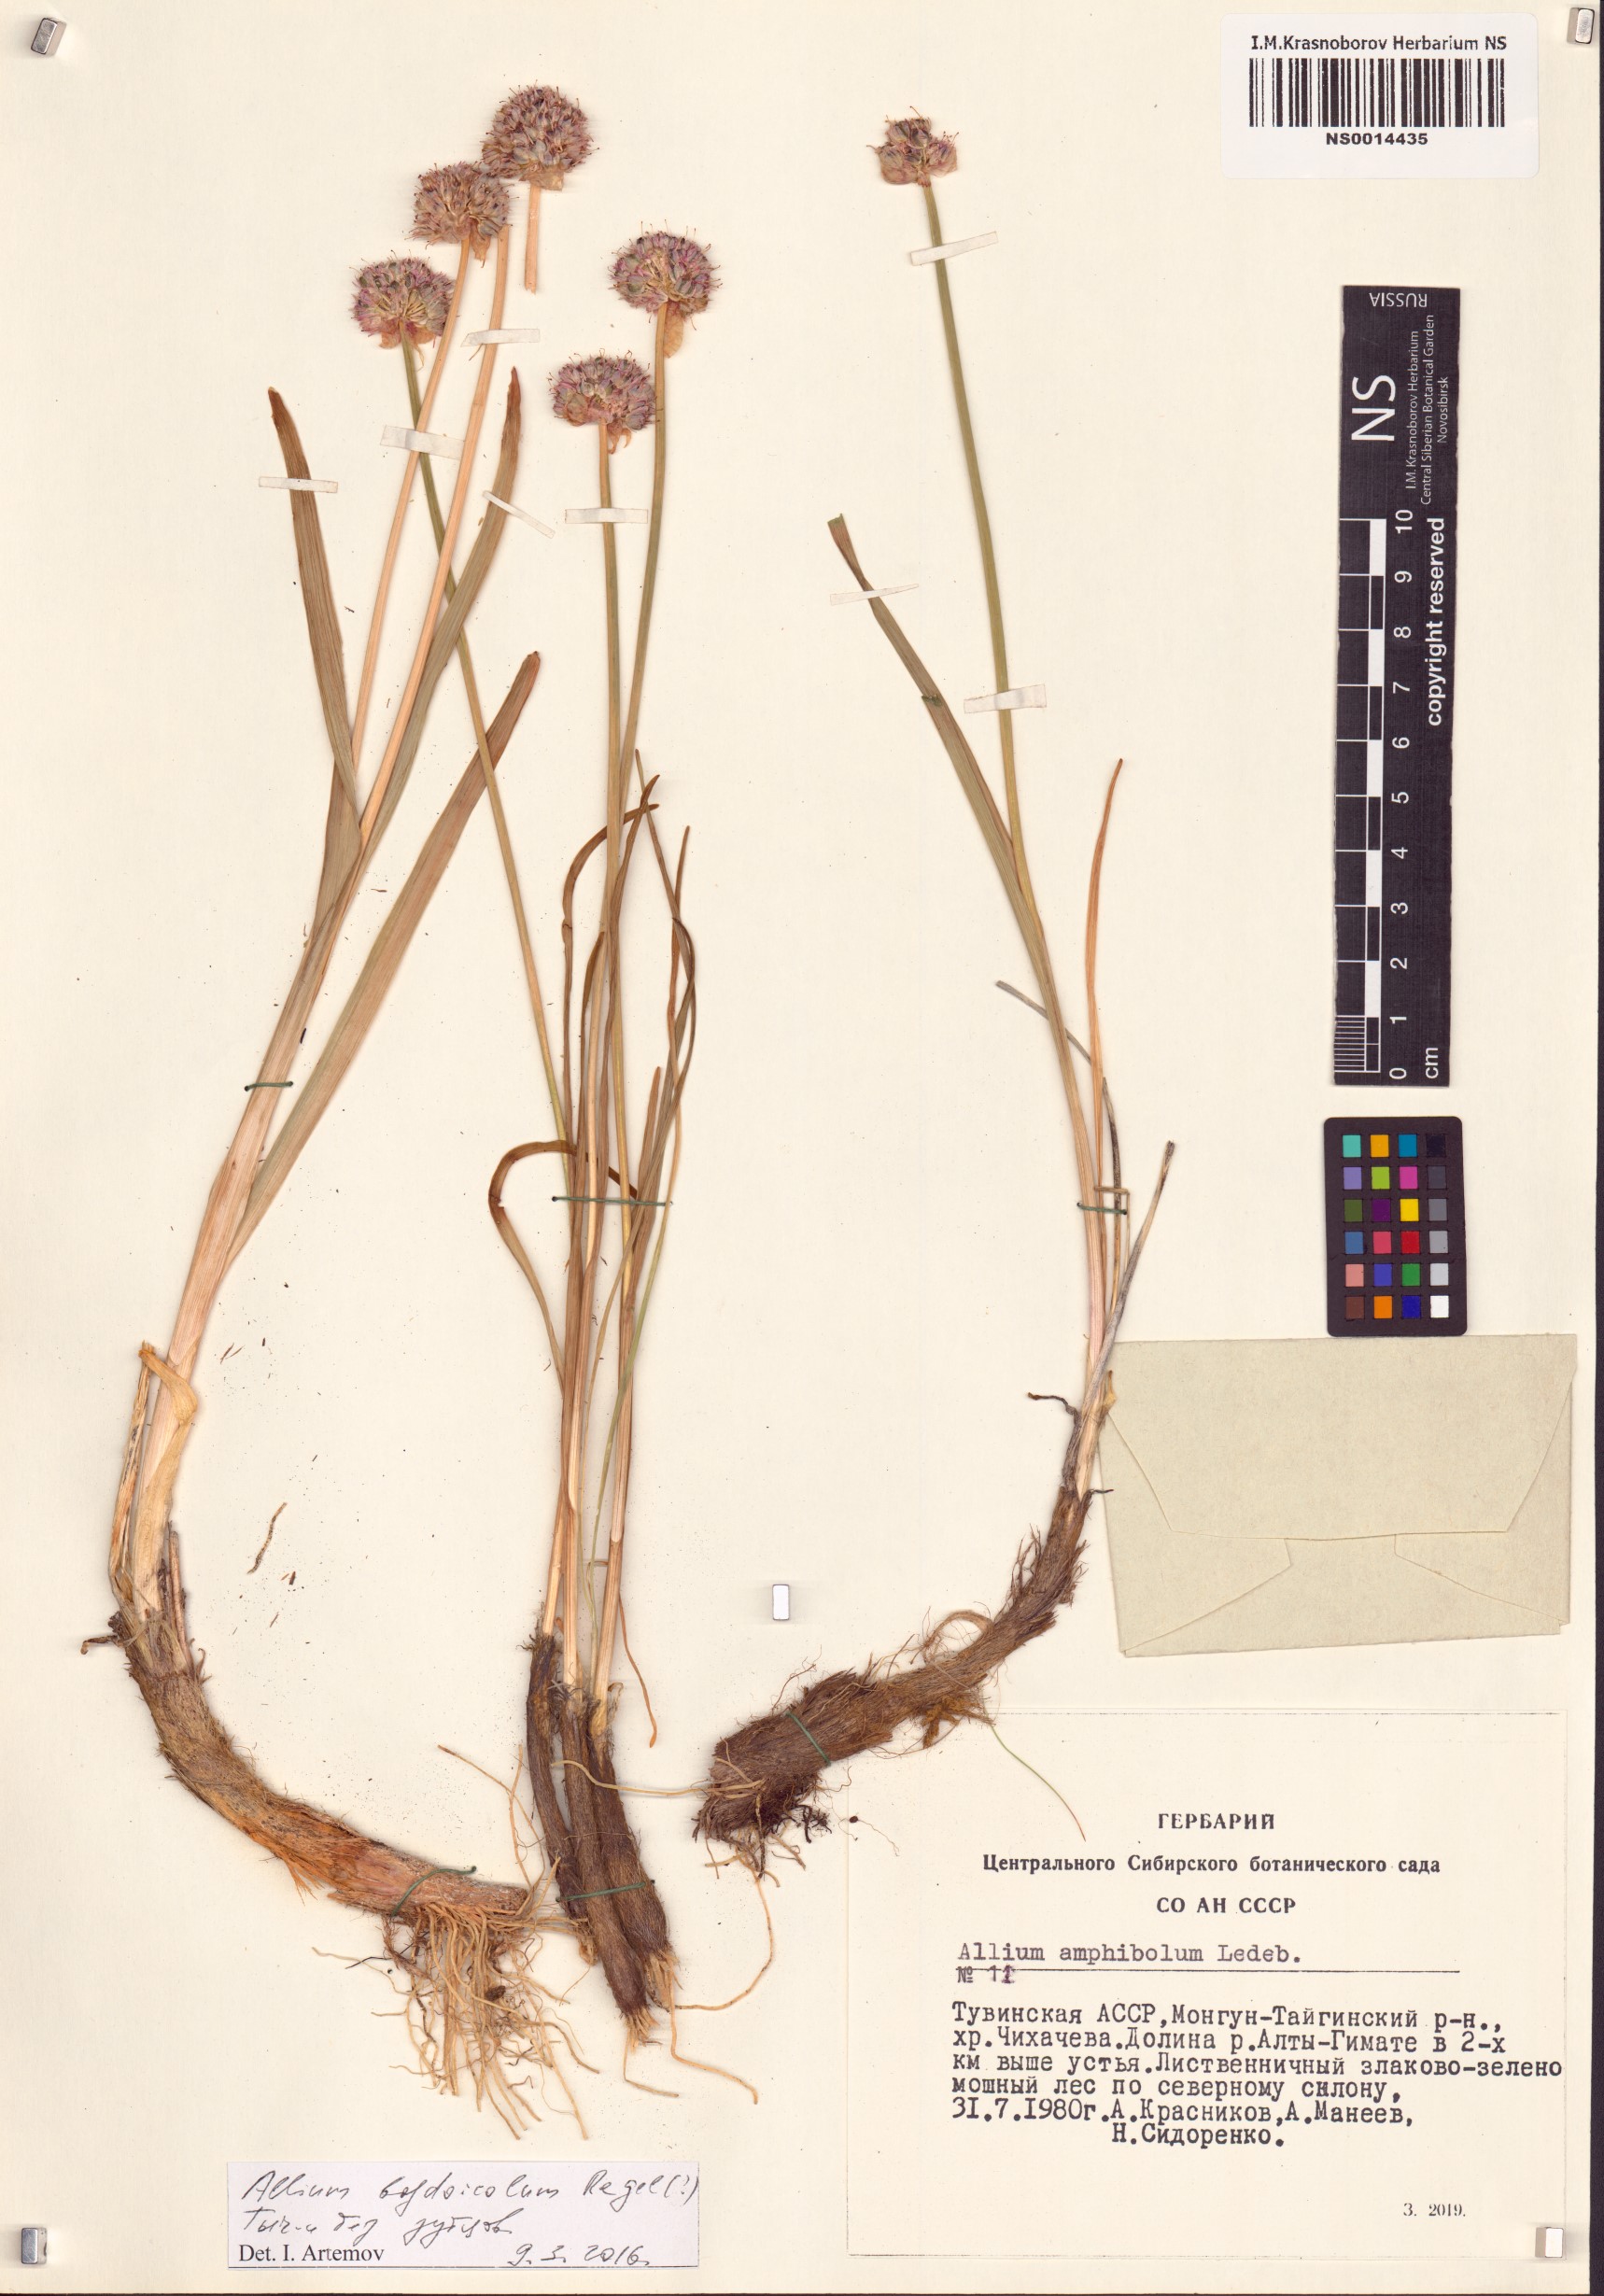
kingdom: Plantae
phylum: Tracheophyta
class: Liliopsida
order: Asparagales
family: Amaryllidaceae
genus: Allium
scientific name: Allium schrenkii
